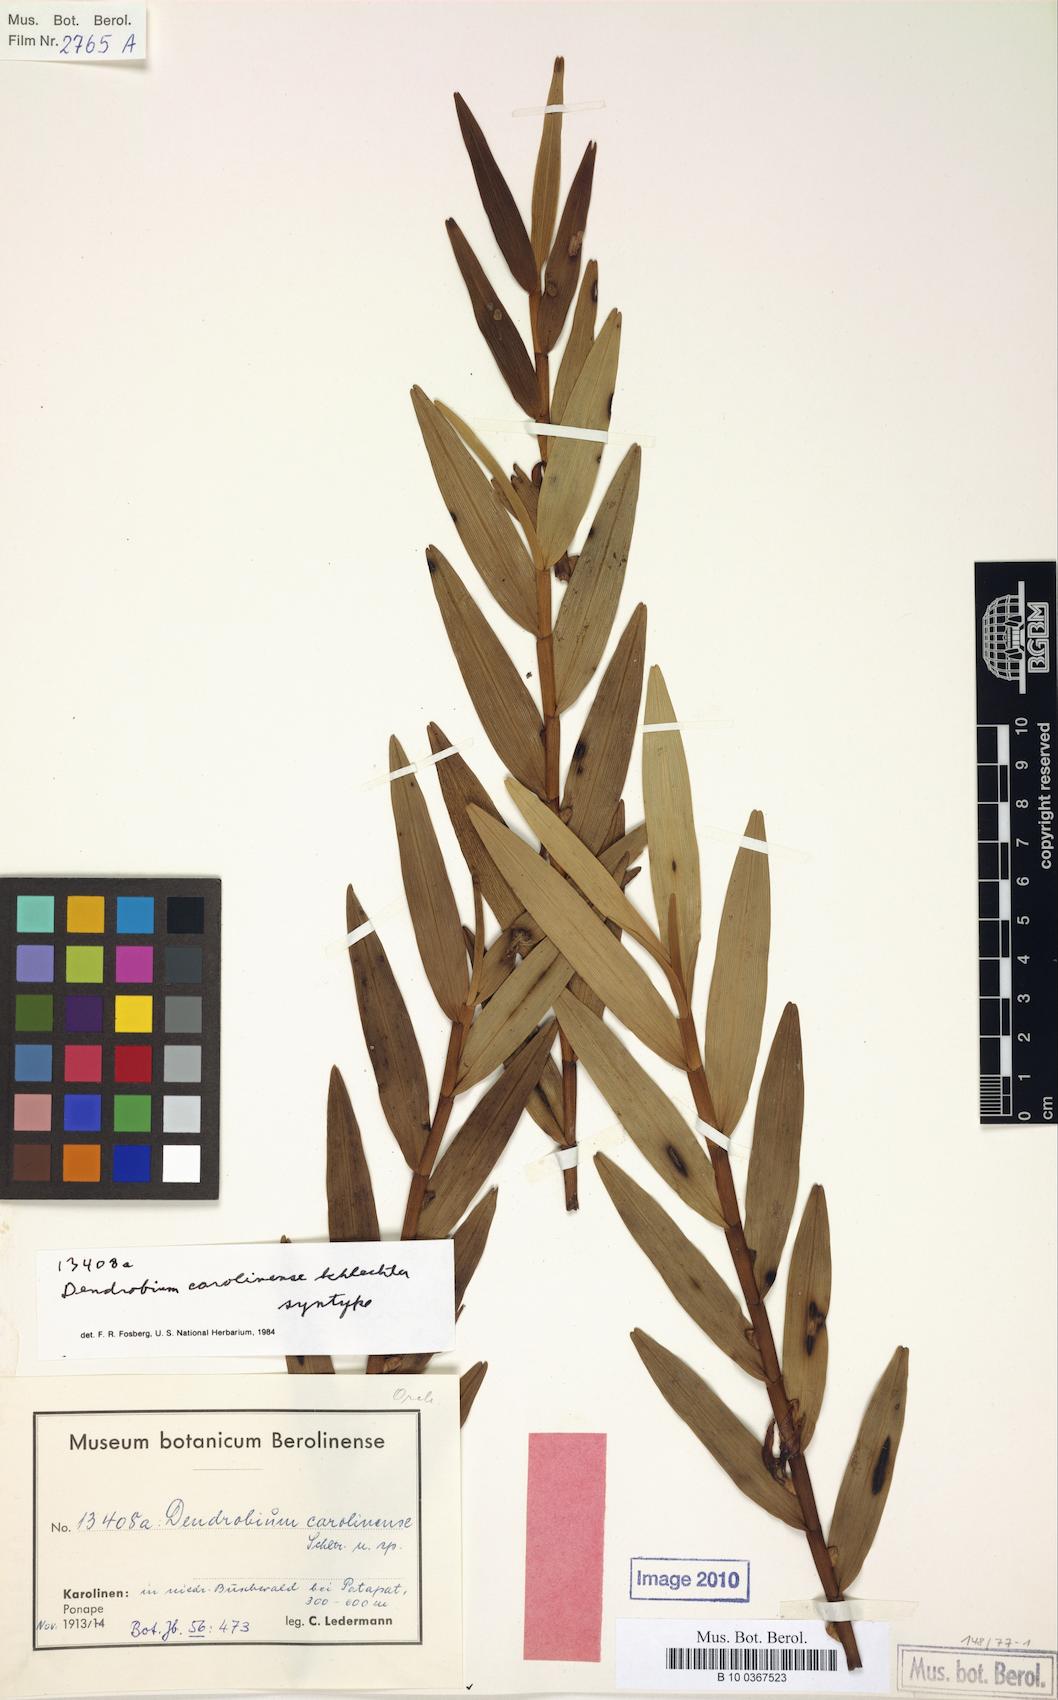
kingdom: Plantae
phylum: Tracheophyta
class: Liliopsida
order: Asparagales
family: Orchidaceae
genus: Dendrobium
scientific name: Dendrobium carolinense
